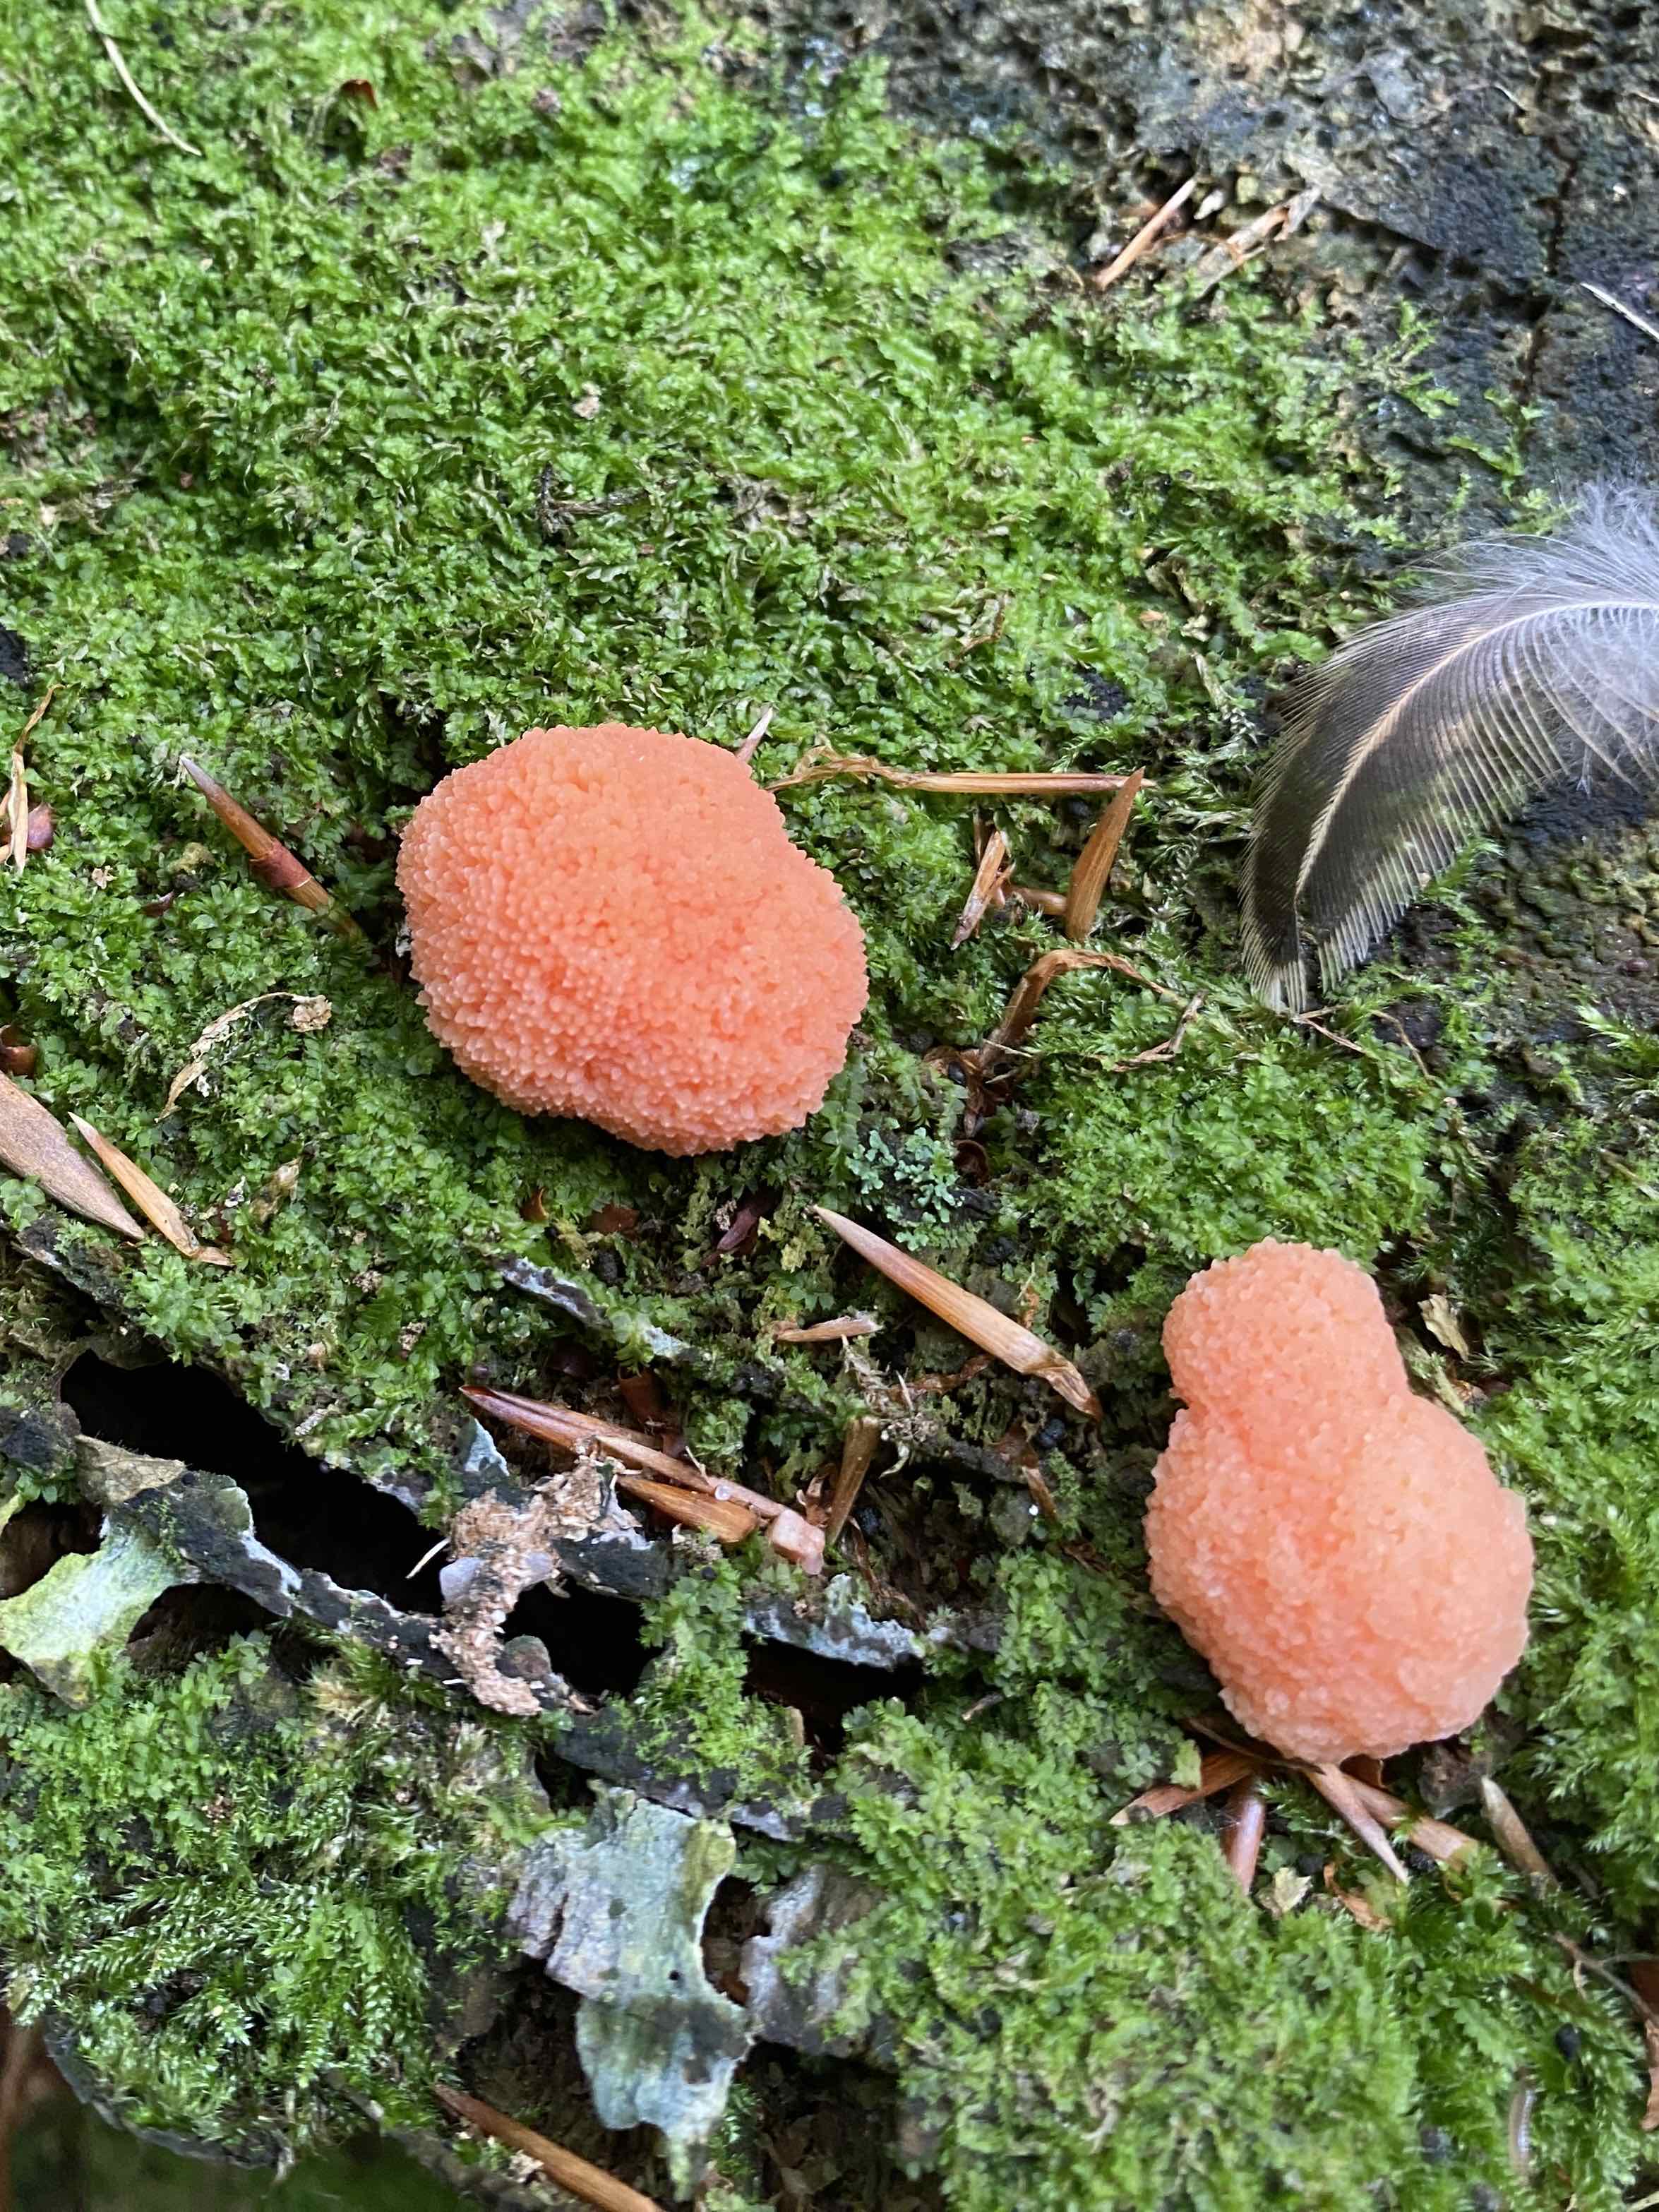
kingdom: Protozoa
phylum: Mycetozoa
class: Myxomycetes
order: Cribrariales
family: Tubiferaceae
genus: Tubifera
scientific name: Tubifera ferruginosa
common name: kanel-støvrør
